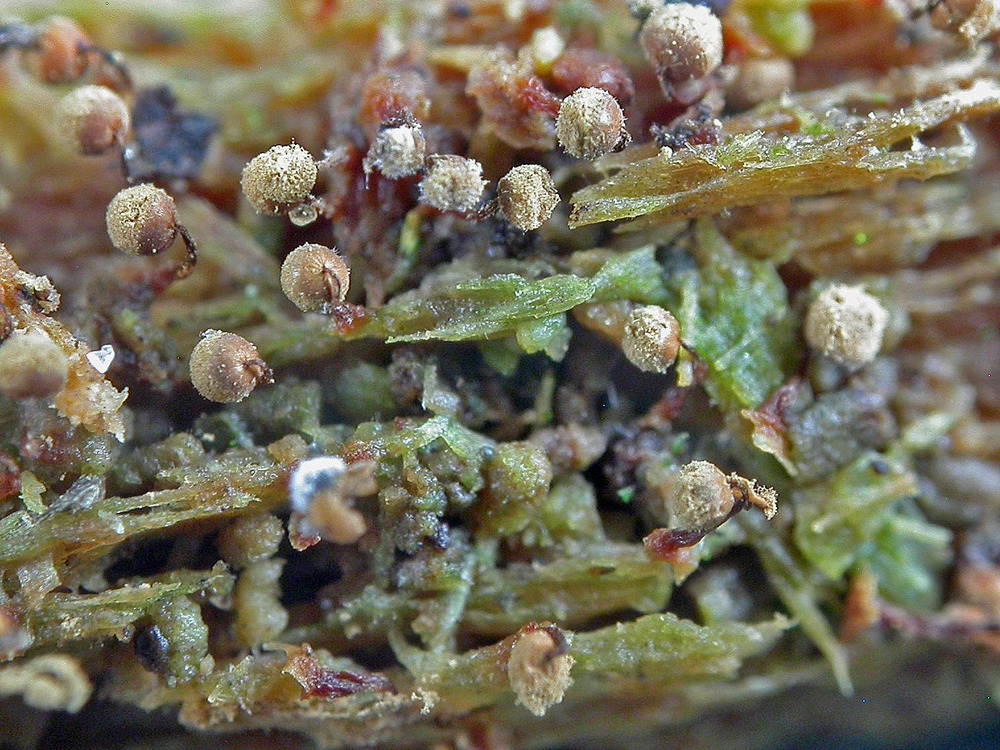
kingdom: Protozoa
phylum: Mycetozoa
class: Myxomycetes
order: Cribrariales
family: Cribrariaceae
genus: Cribraria
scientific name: Cribraria vulgaris
